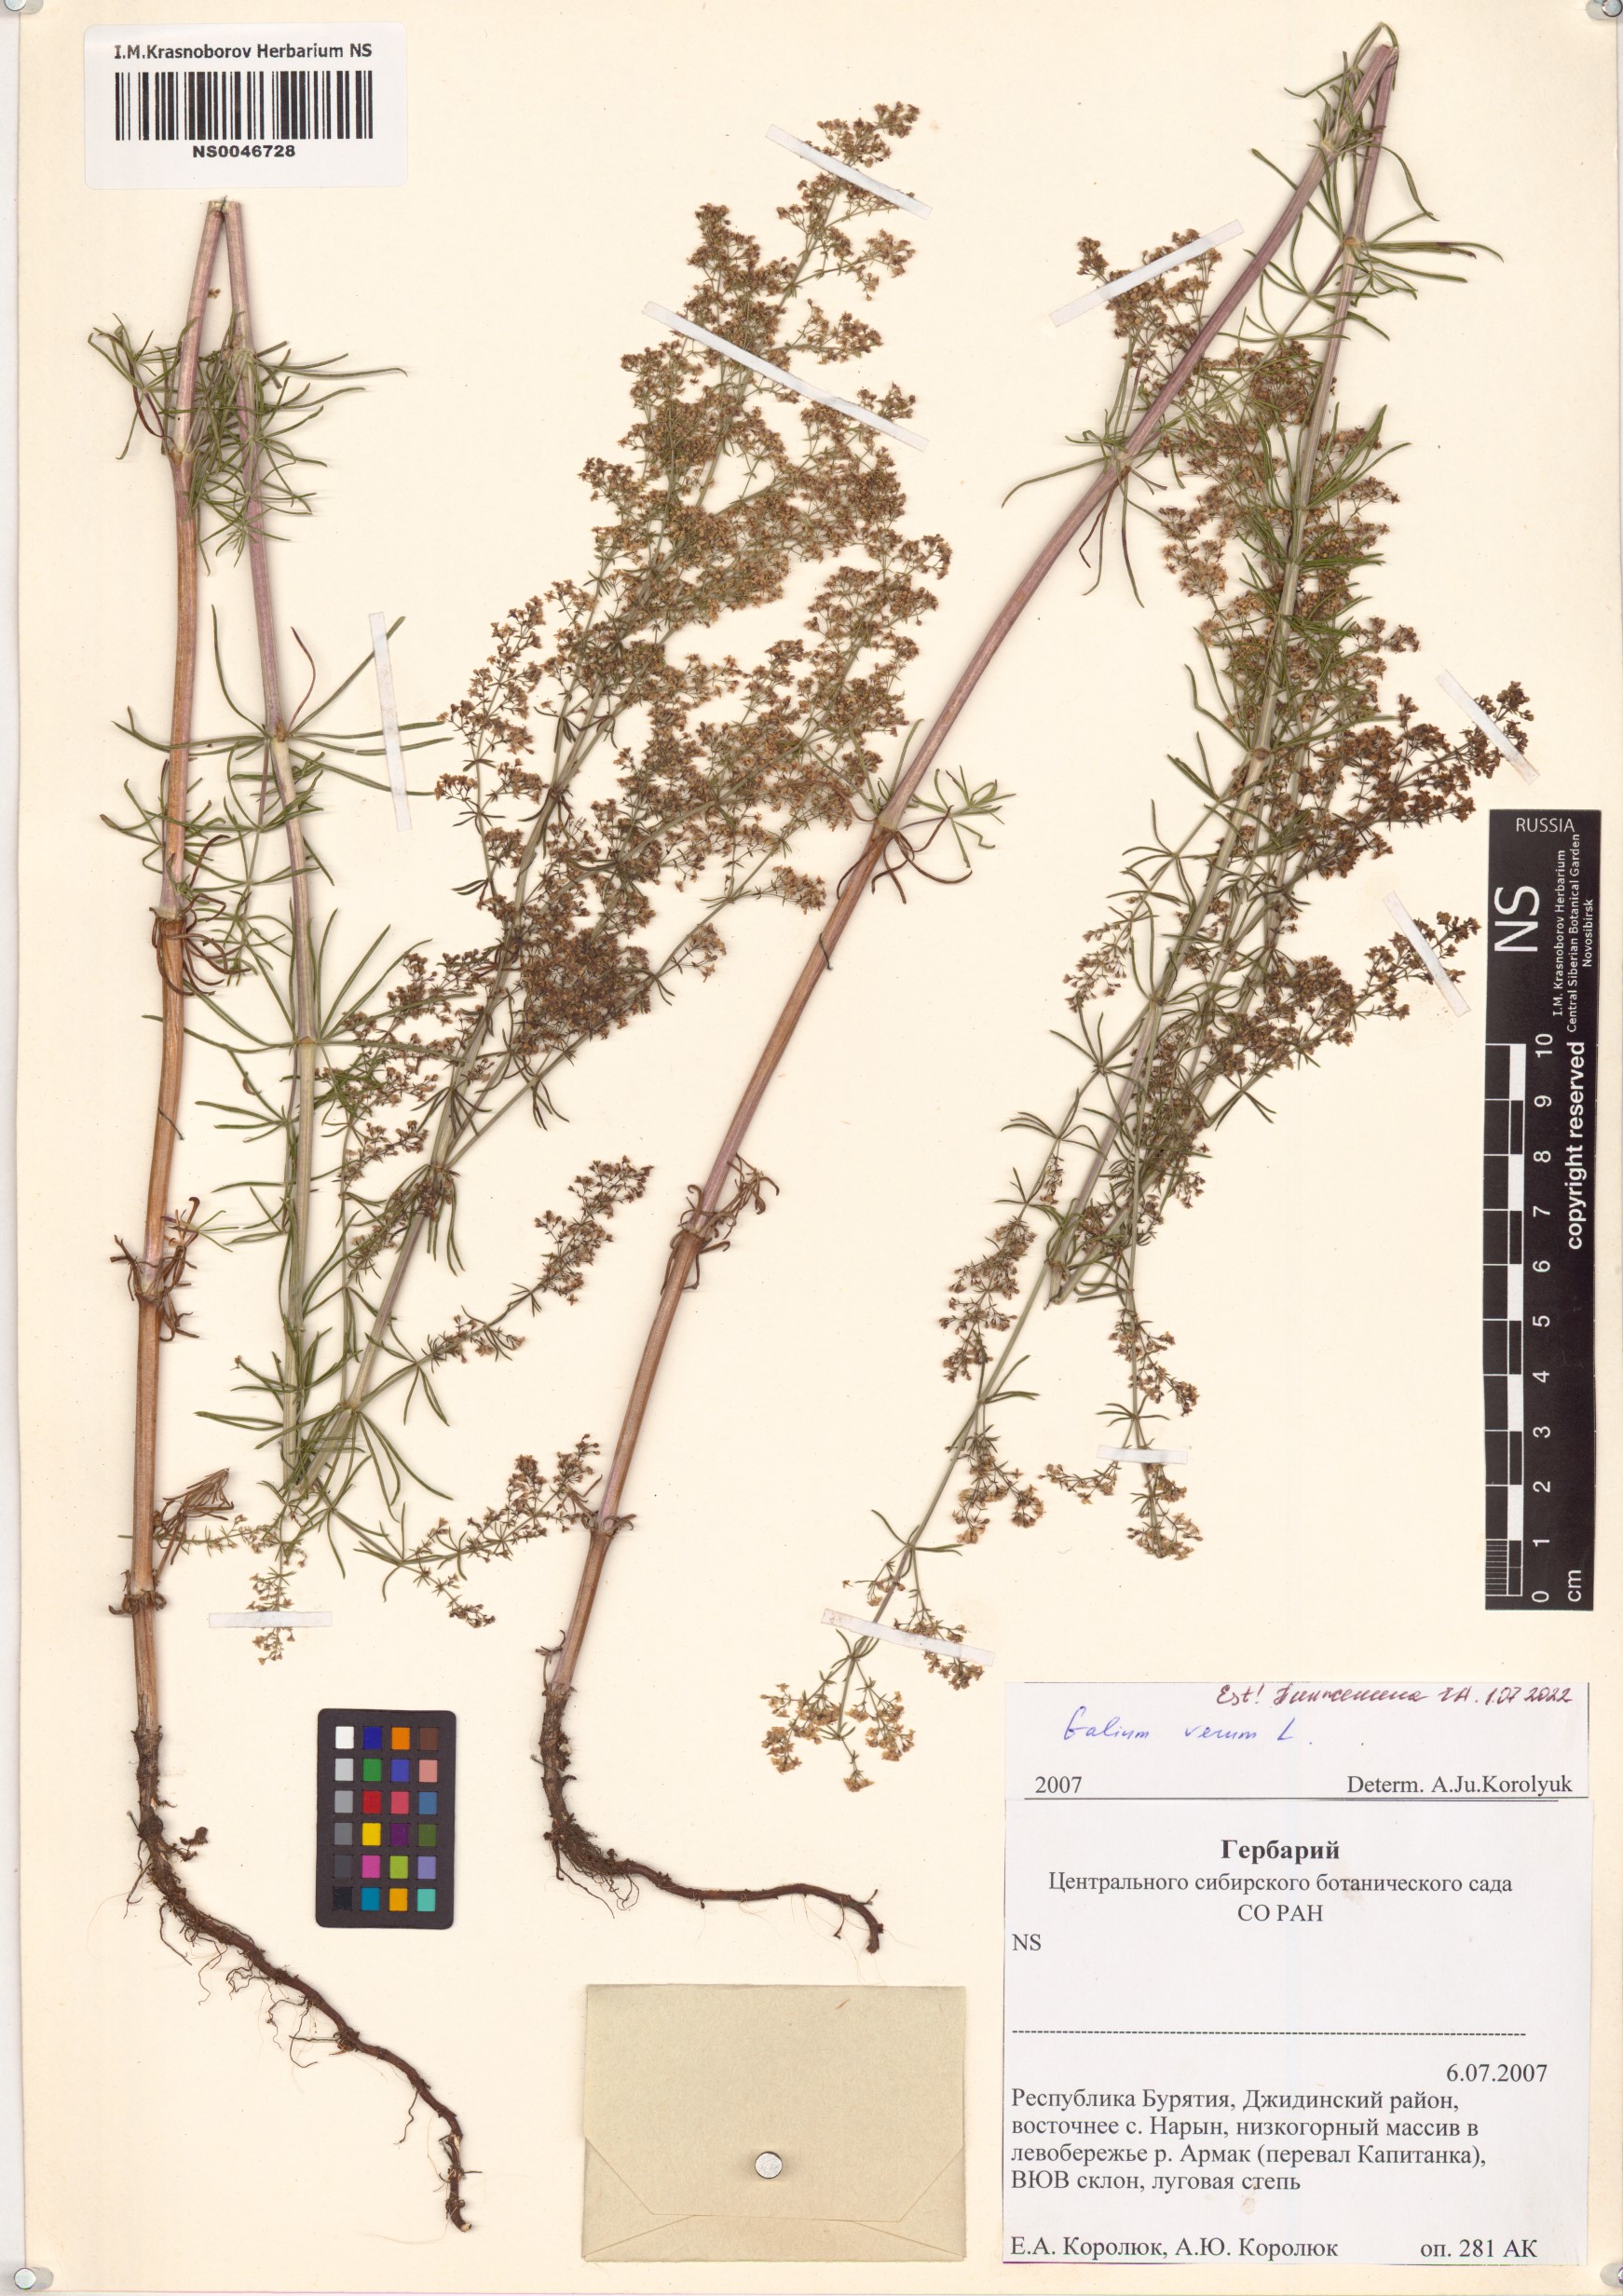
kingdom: Plantae
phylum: Tracheophyta
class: Magnoliopsida
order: Gentianales
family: Rubiaceae
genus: Galium
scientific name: Galium verum
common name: Lady's bedstraw
